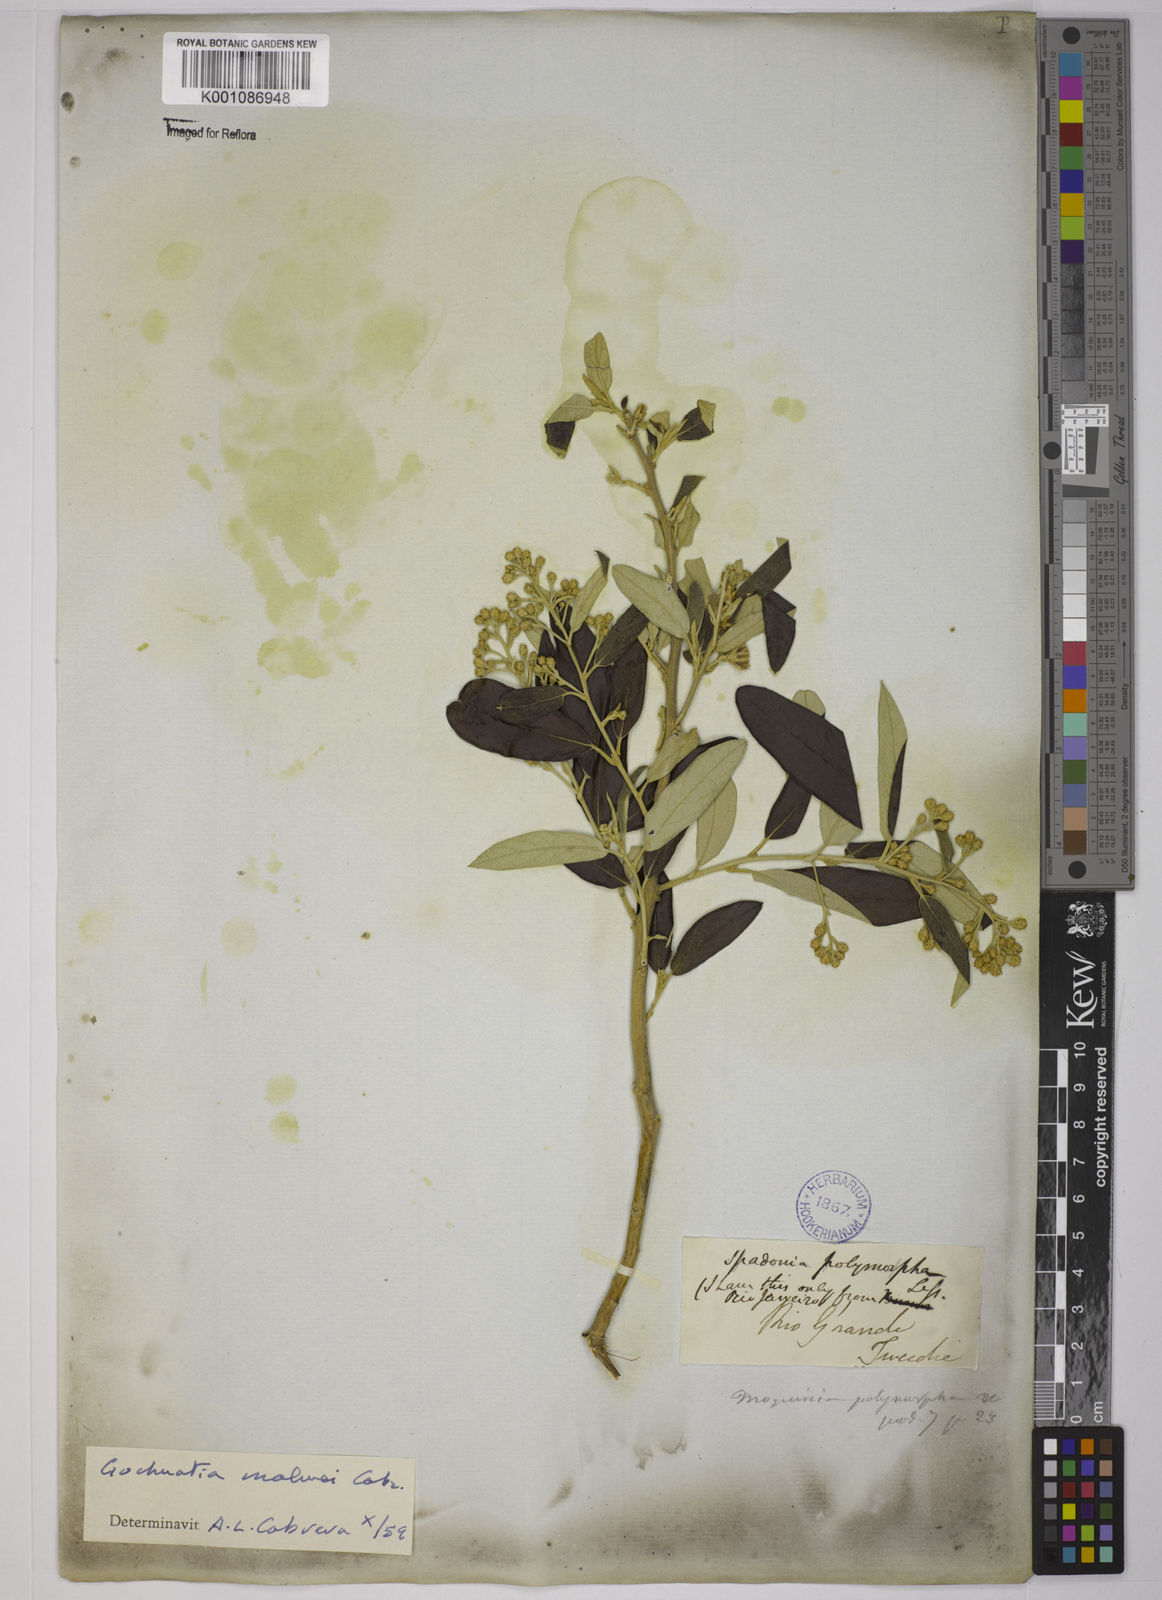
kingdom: Plantae
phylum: Tracheophyta
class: Magnoliopsida
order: Asterales
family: Asteraceae
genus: Moquiniastrum
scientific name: Moquiniastrum polymorphum
